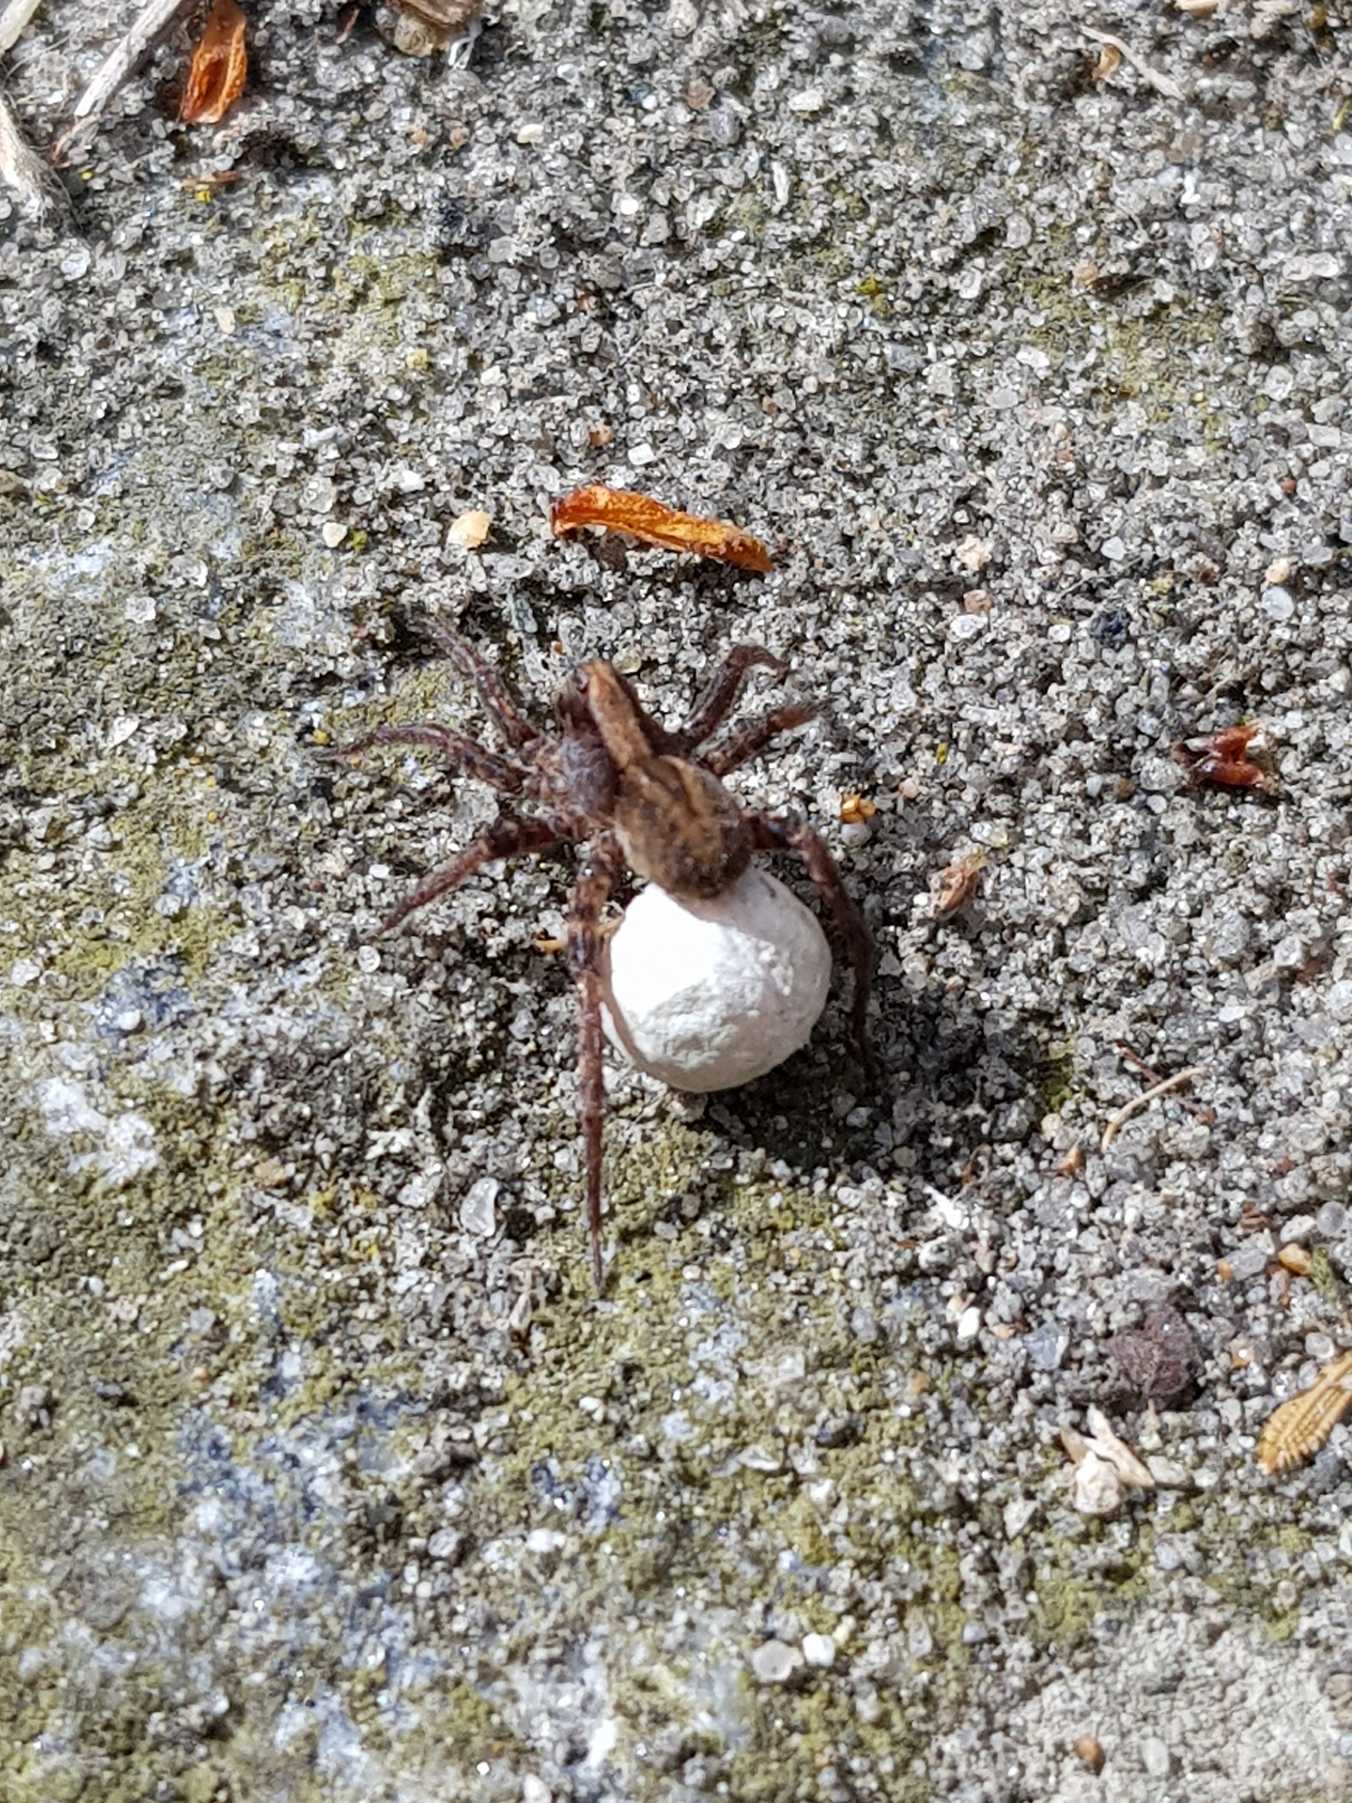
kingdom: Animalia
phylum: Arthropoda
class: Arachnida
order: Araneae
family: Lycosidae
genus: Alopecosa
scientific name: Alopecosa pulverulenta
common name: Kilekæmpejæger
